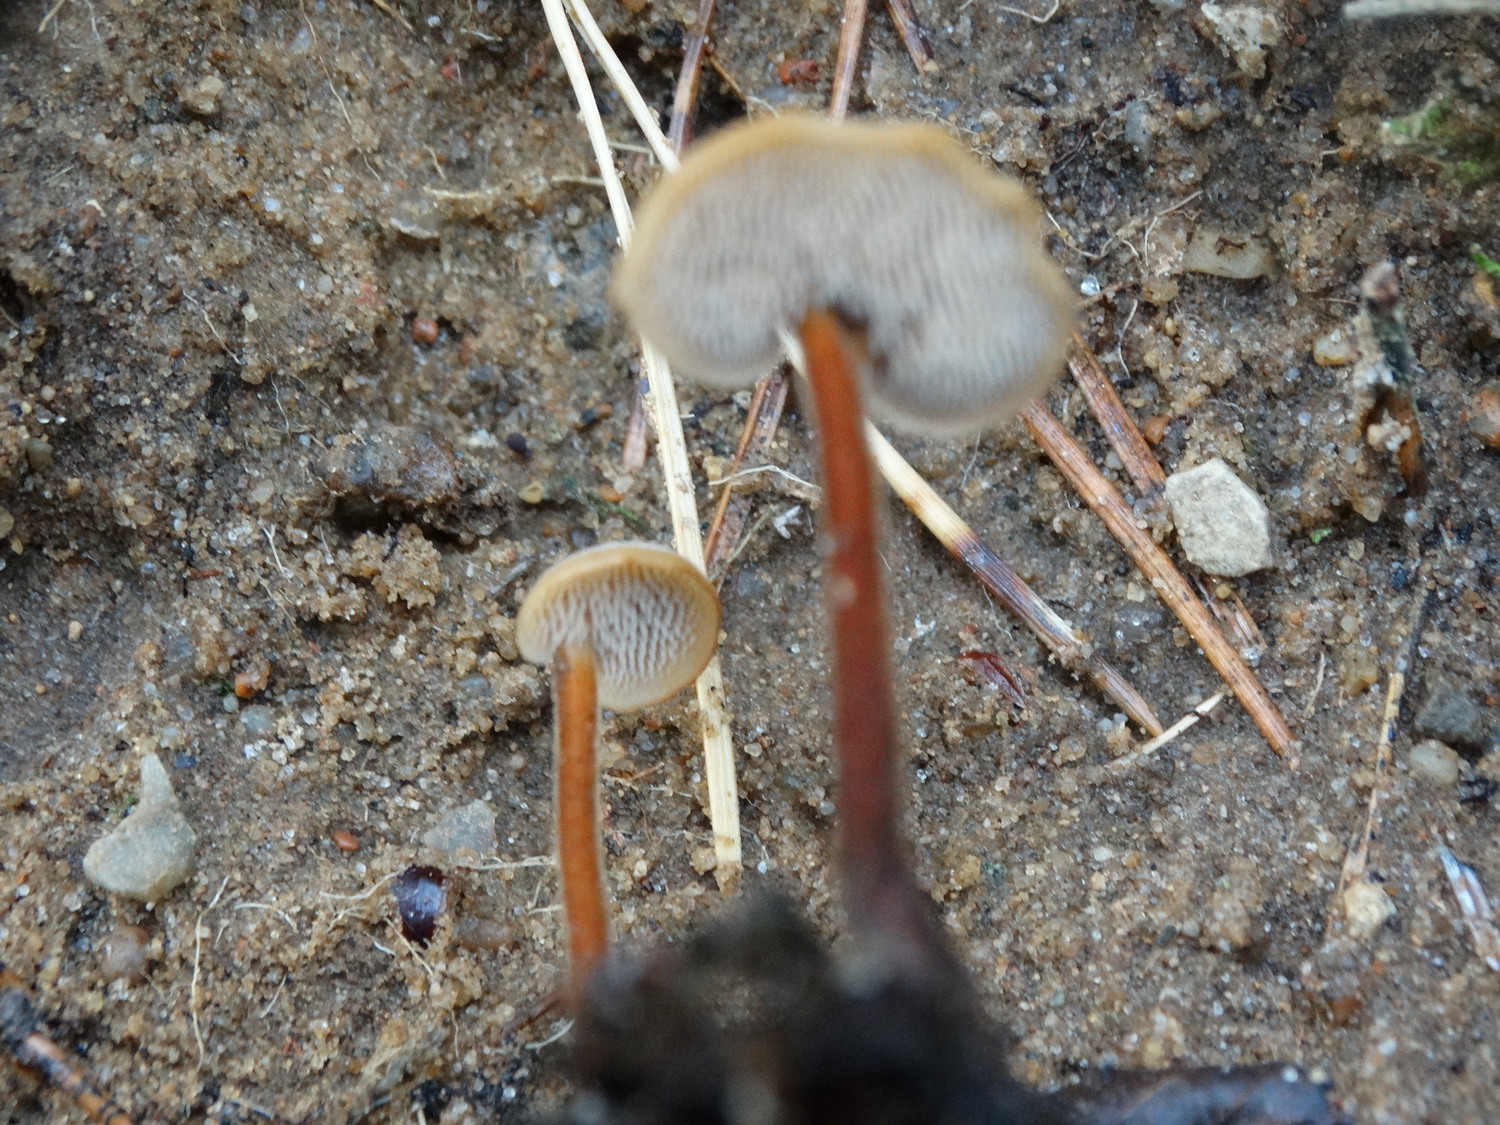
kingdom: Fungi
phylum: Basidiomycota
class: Agaricomycetes
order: Russulales
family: Auriscalpiaceae
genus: Auriscalpium
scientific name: Auriscalpium vulgare
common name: koglepigsvamp
